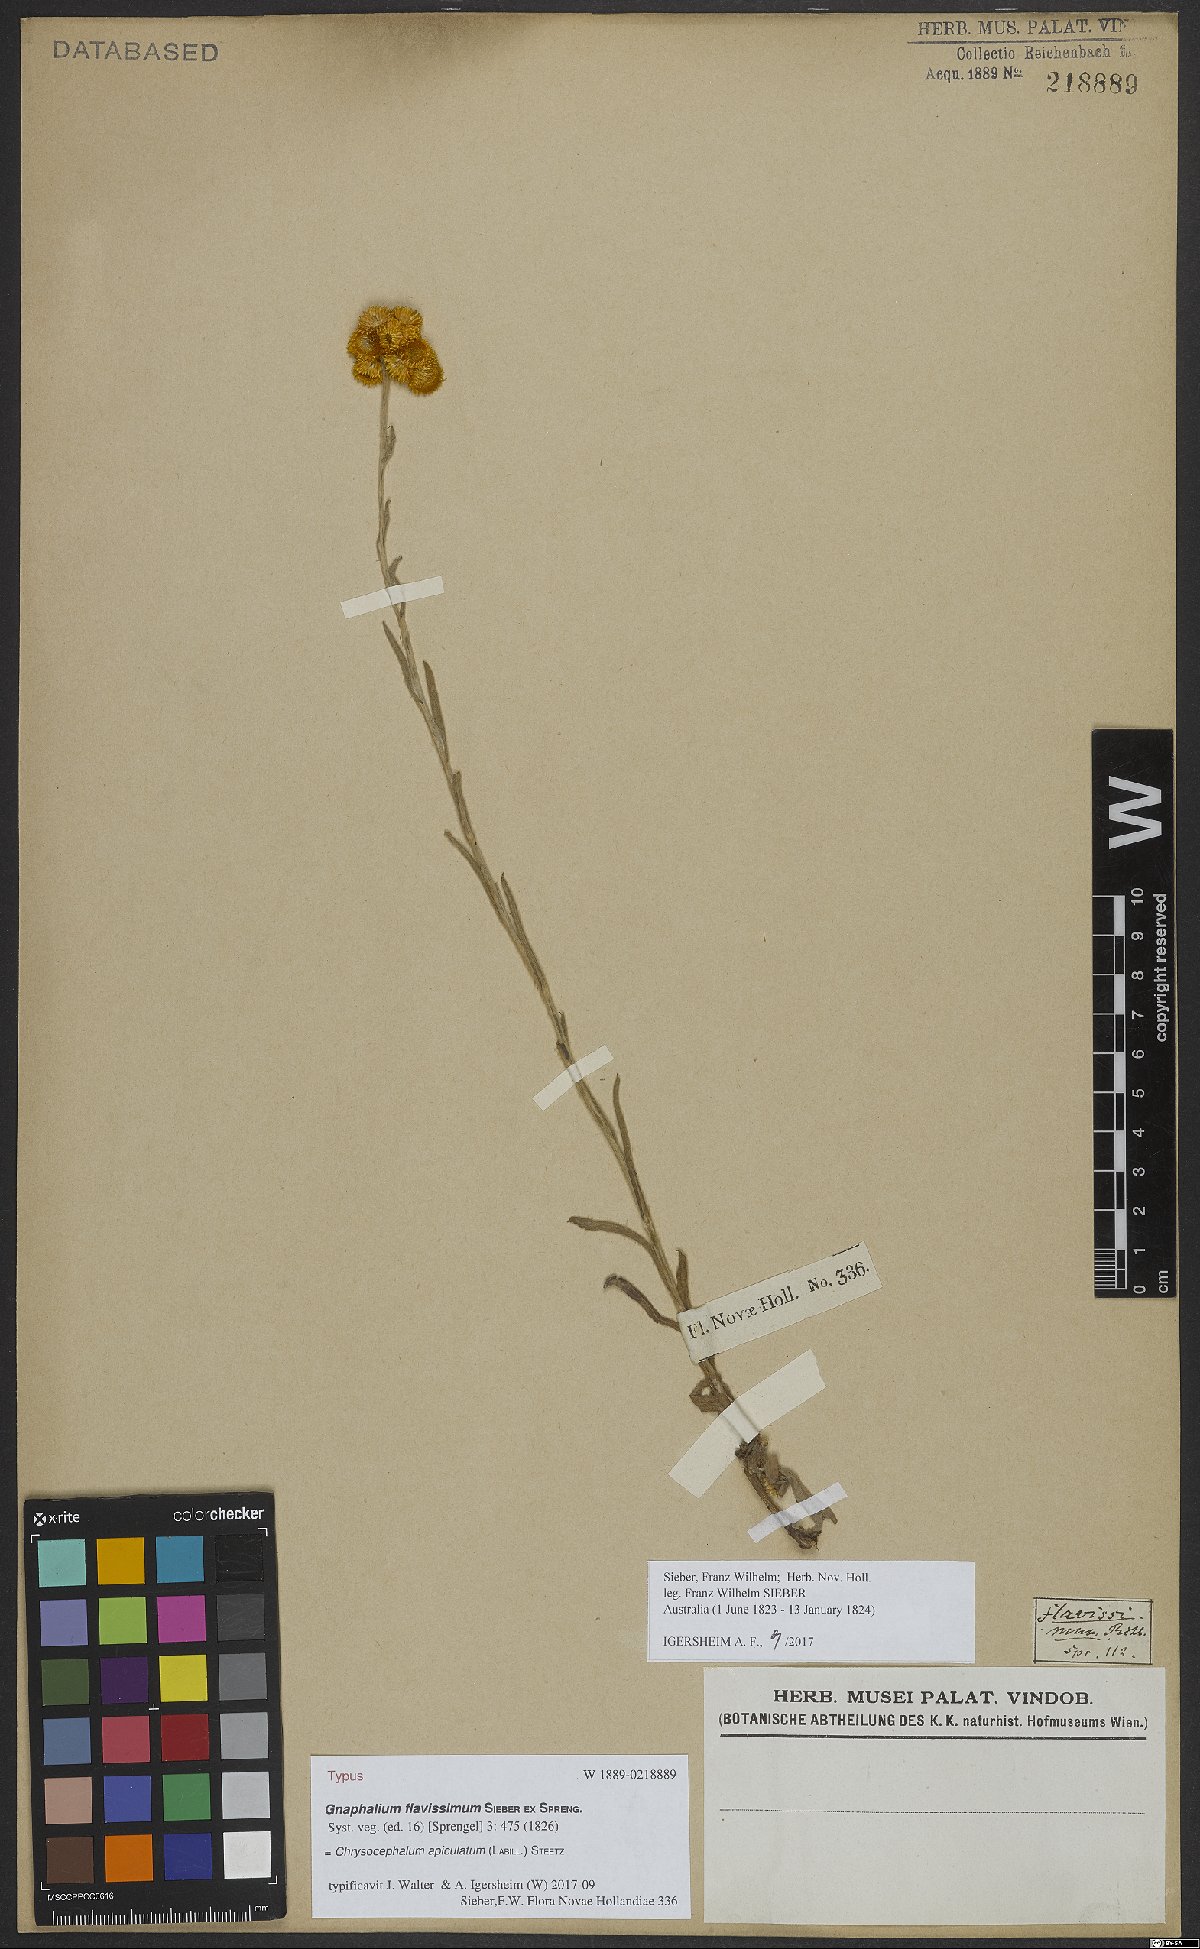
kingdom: Plantae
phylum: Tracheophyta
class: Magnoliopsida
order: Asterales
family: Asteraceae
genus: Chrysocephalum
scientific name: Chrysocephalum apiculatum
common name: Common everlasting
